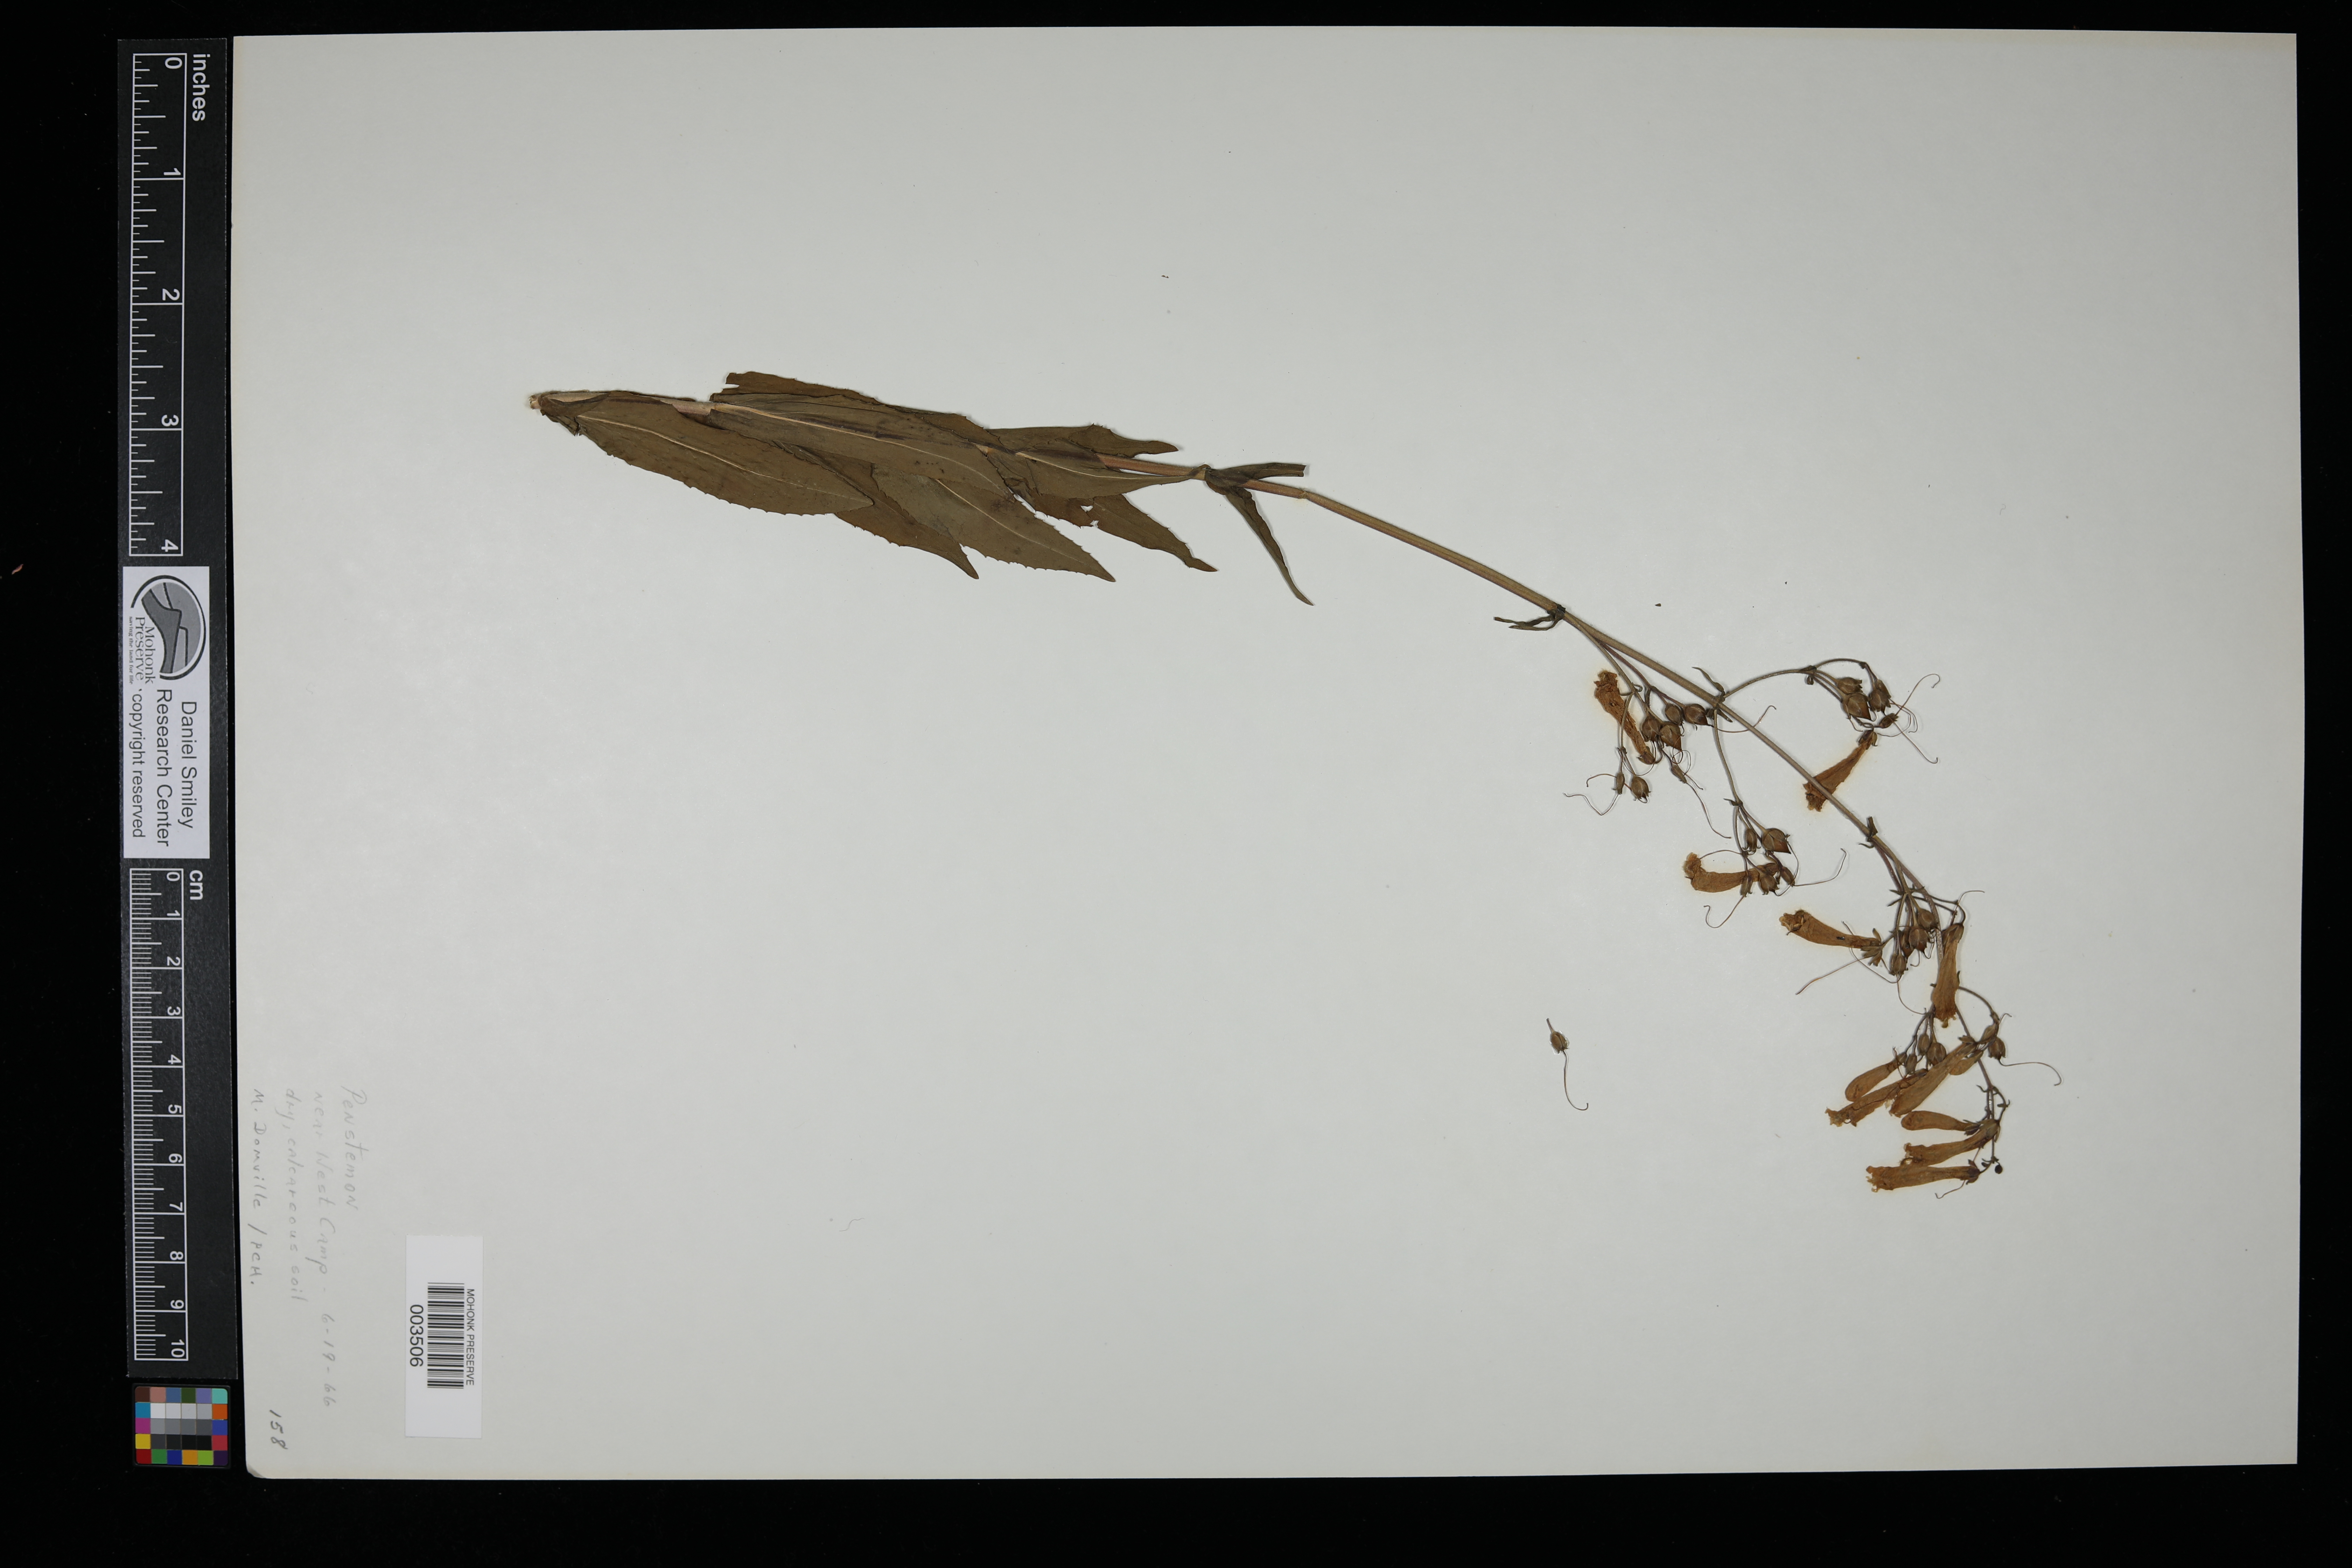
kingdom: Plantae
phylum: Tracheophyta
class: Magnoliopsida
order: Lamiales
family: Plantaginaceae
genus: Penstemon
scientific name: Penstemon
